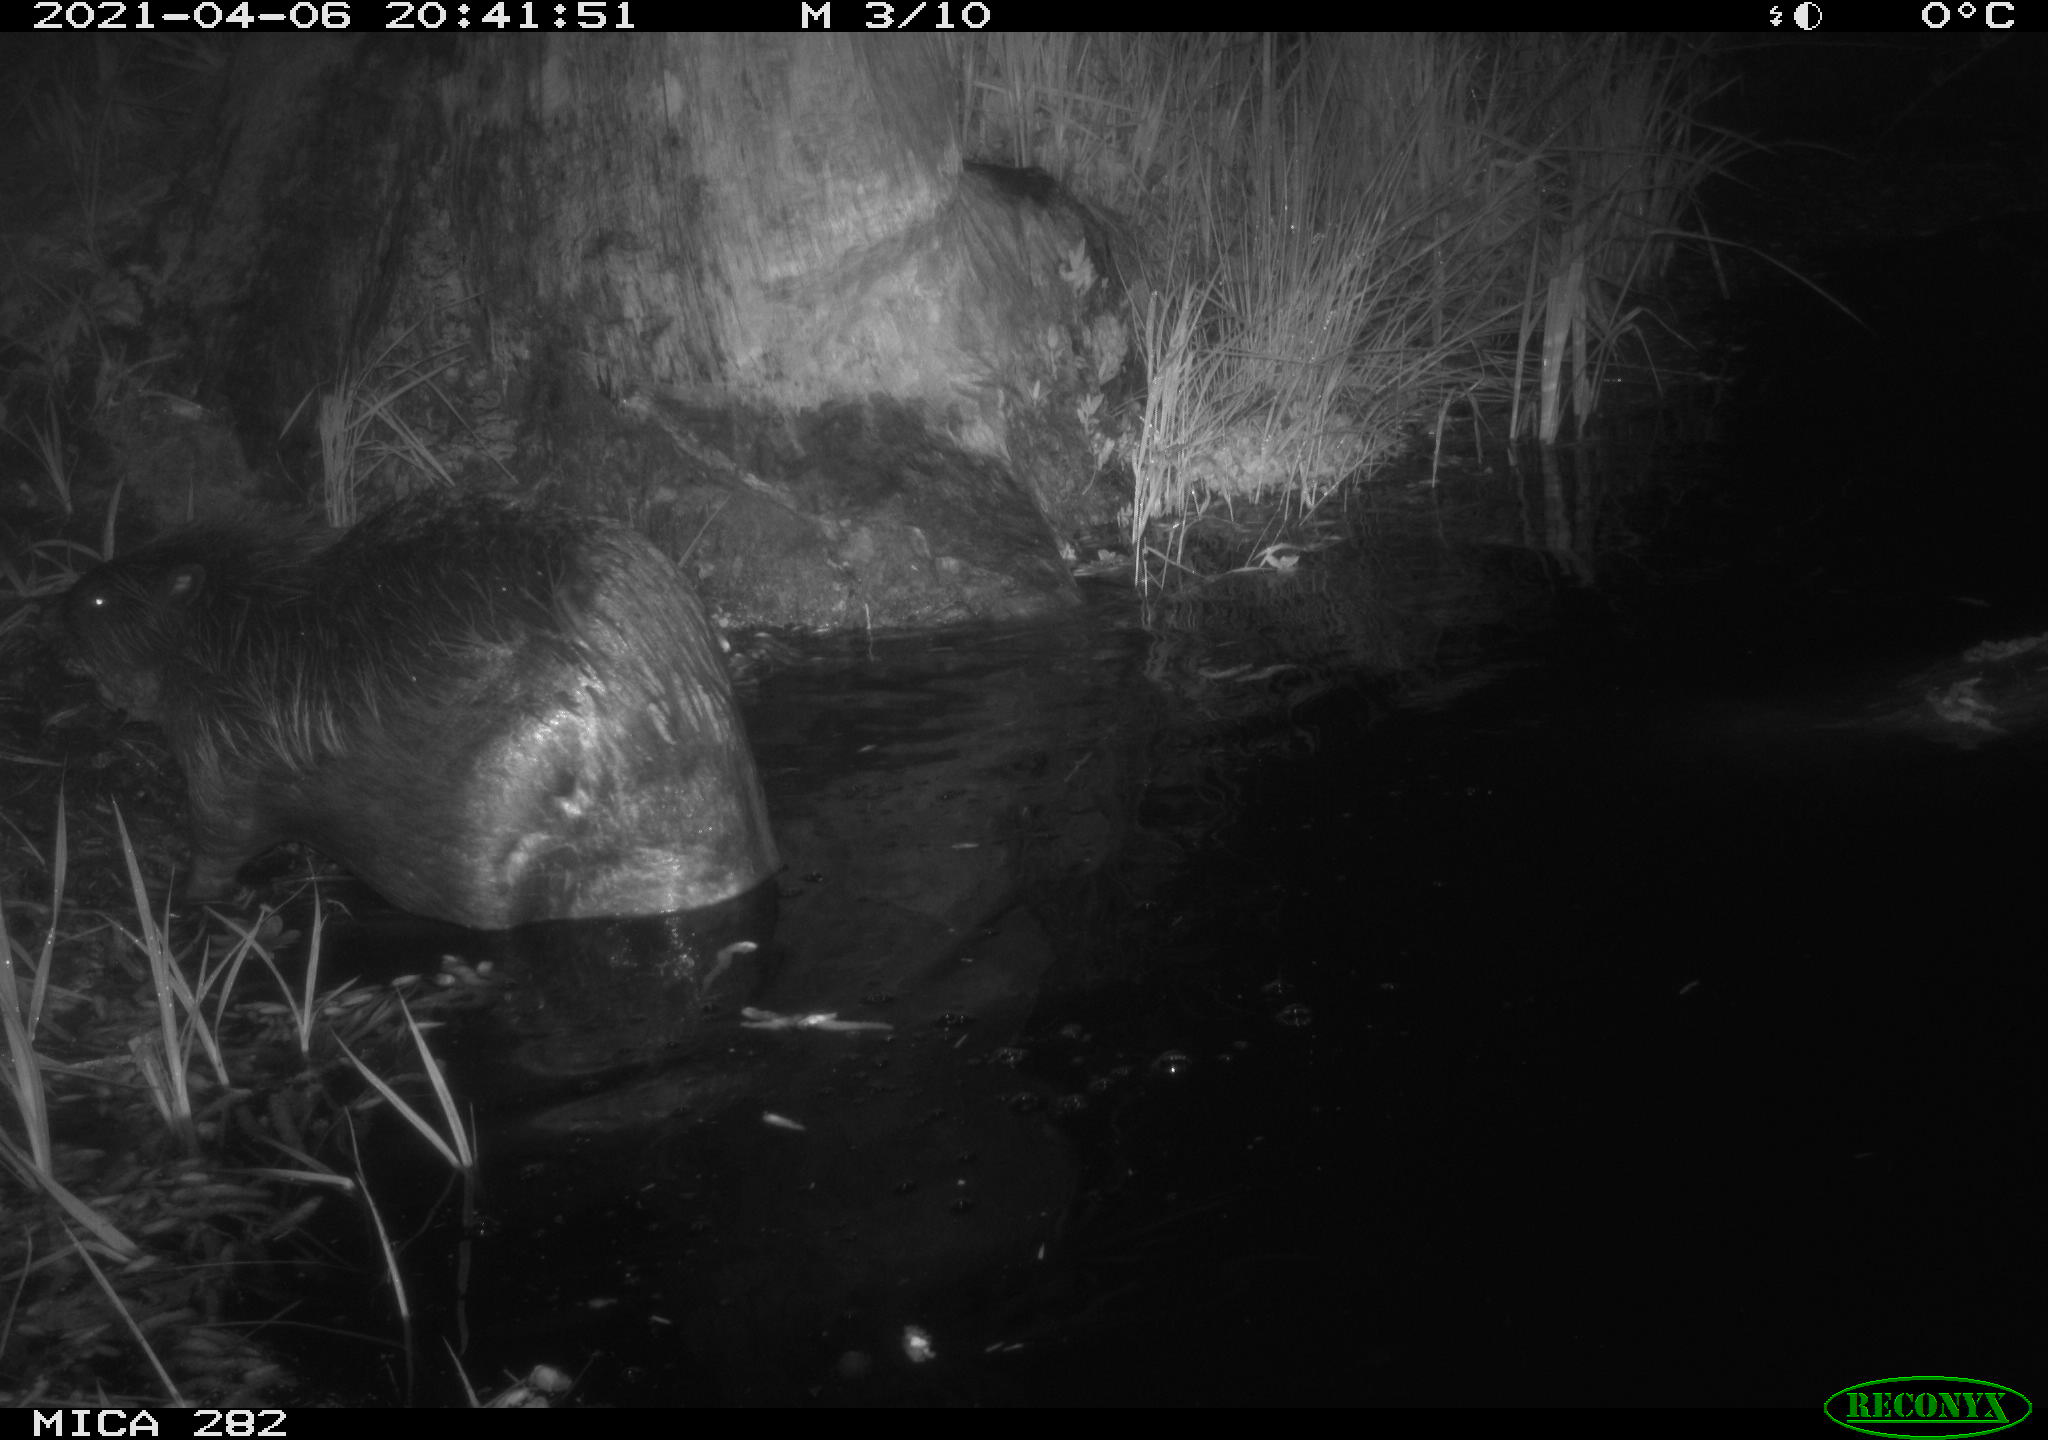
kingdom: Animalia
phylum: Chordata
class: Mammalia
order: Rodentia
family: Castoridae
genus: Castor
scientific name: Castor fiber
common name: Eurasian beaver
